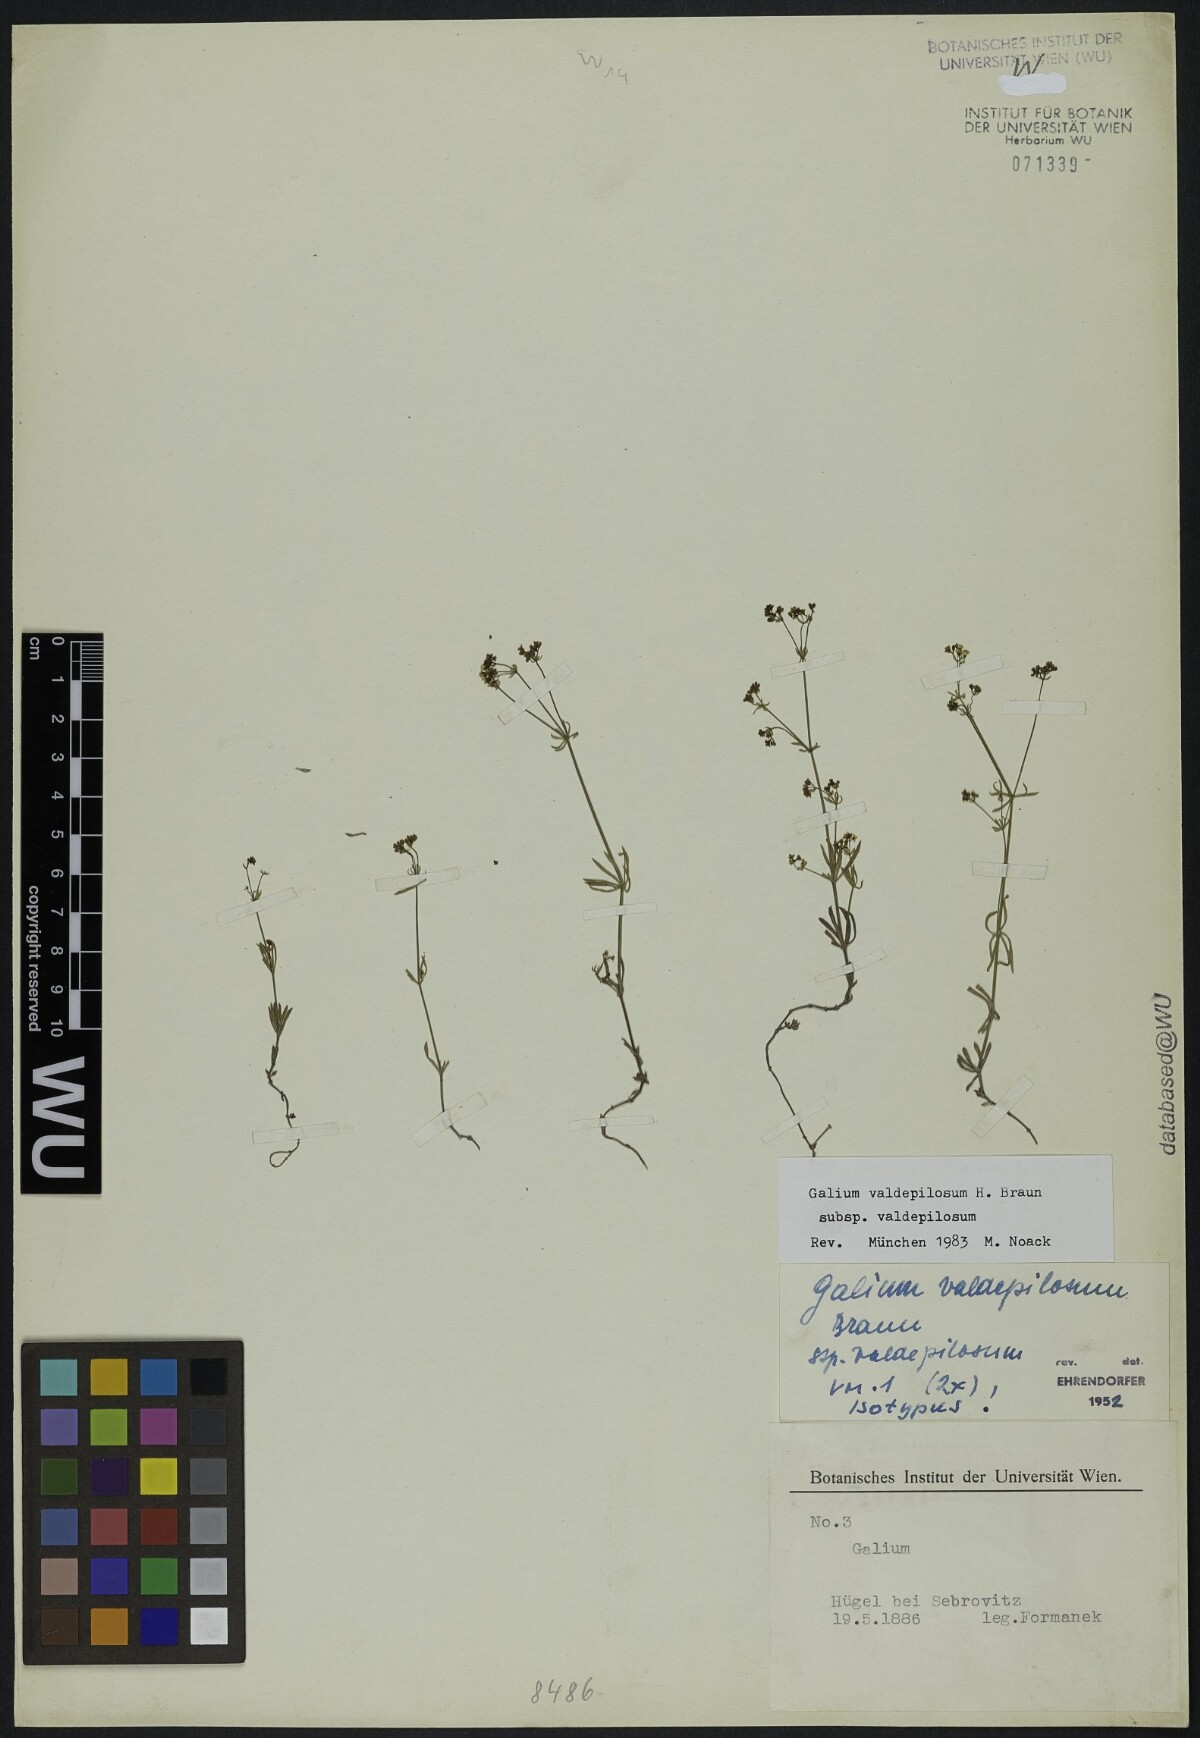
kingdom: Plantae
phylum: Tracheophyta
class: Magnoliopsida
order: Gentianales
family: Rubiaceae
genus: Galium
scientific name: Galium valdepilosum
